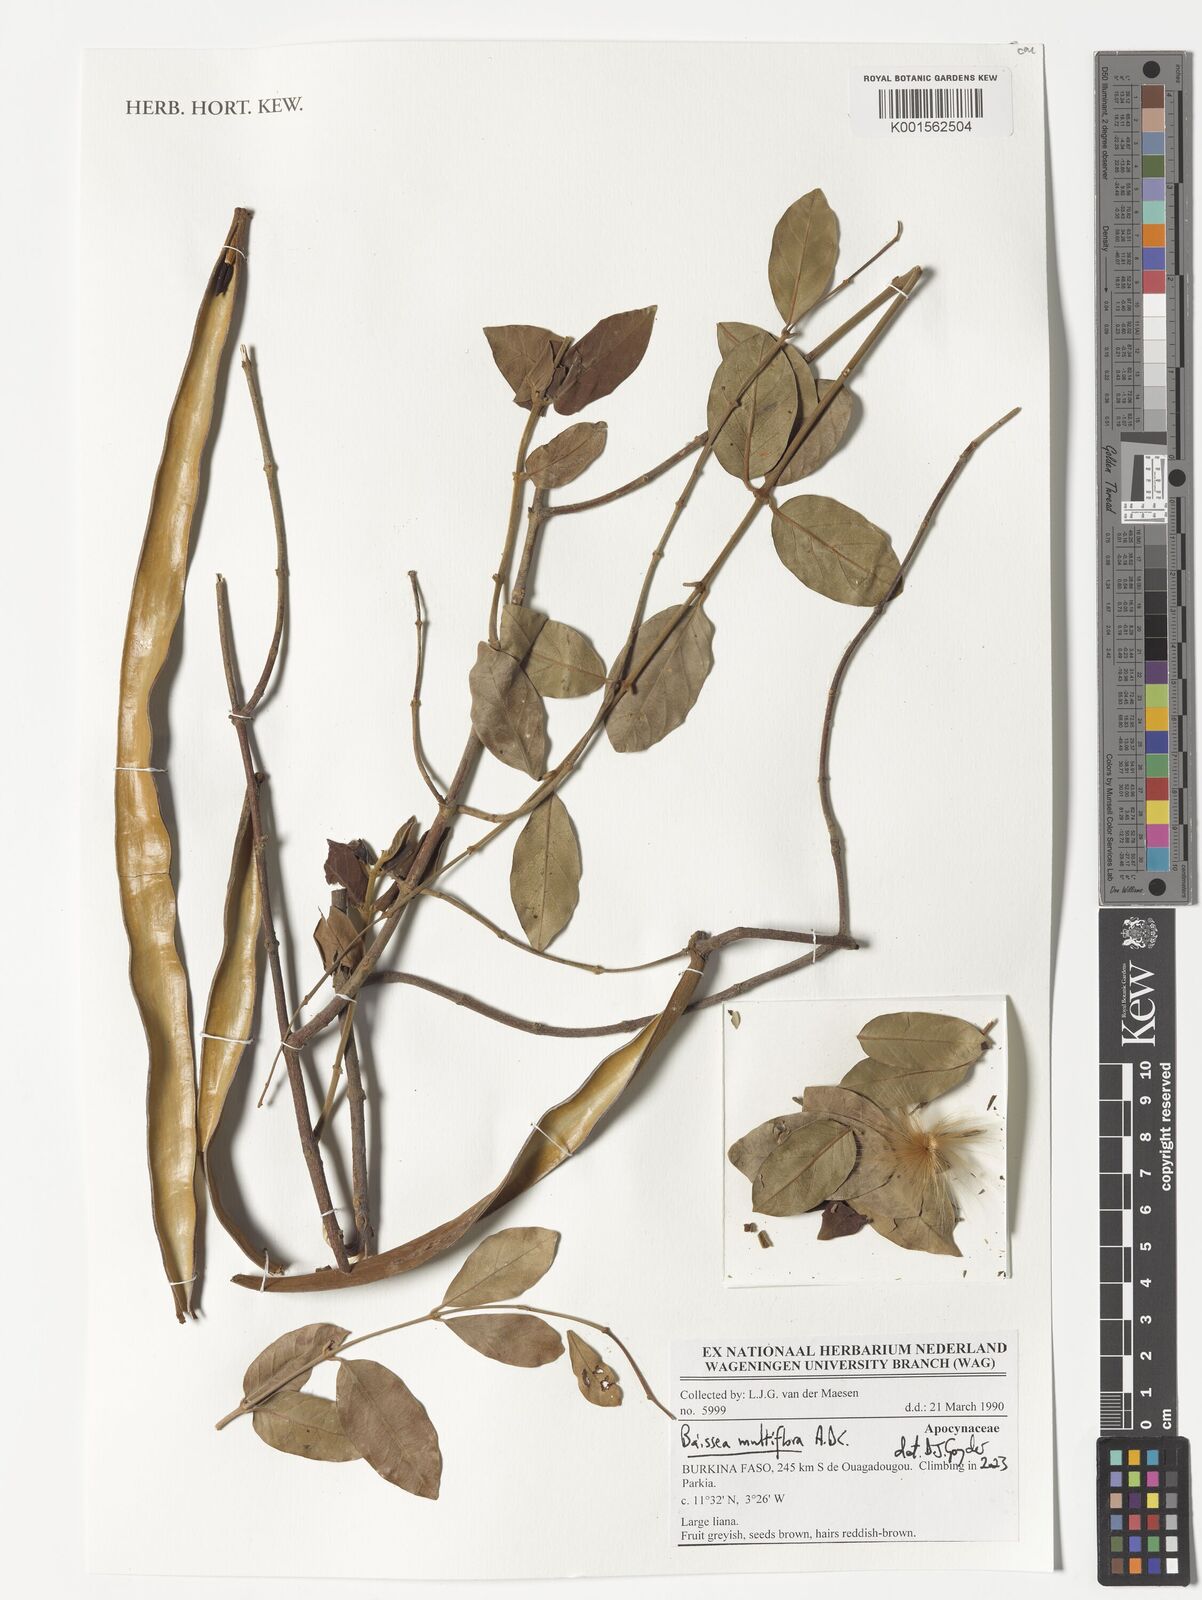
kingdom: Plantae
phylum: Tracheophyta
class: Magnoliopsida
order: Gentianales
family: Apocynaceae
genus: Baissea
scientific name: Baissea multiflora
